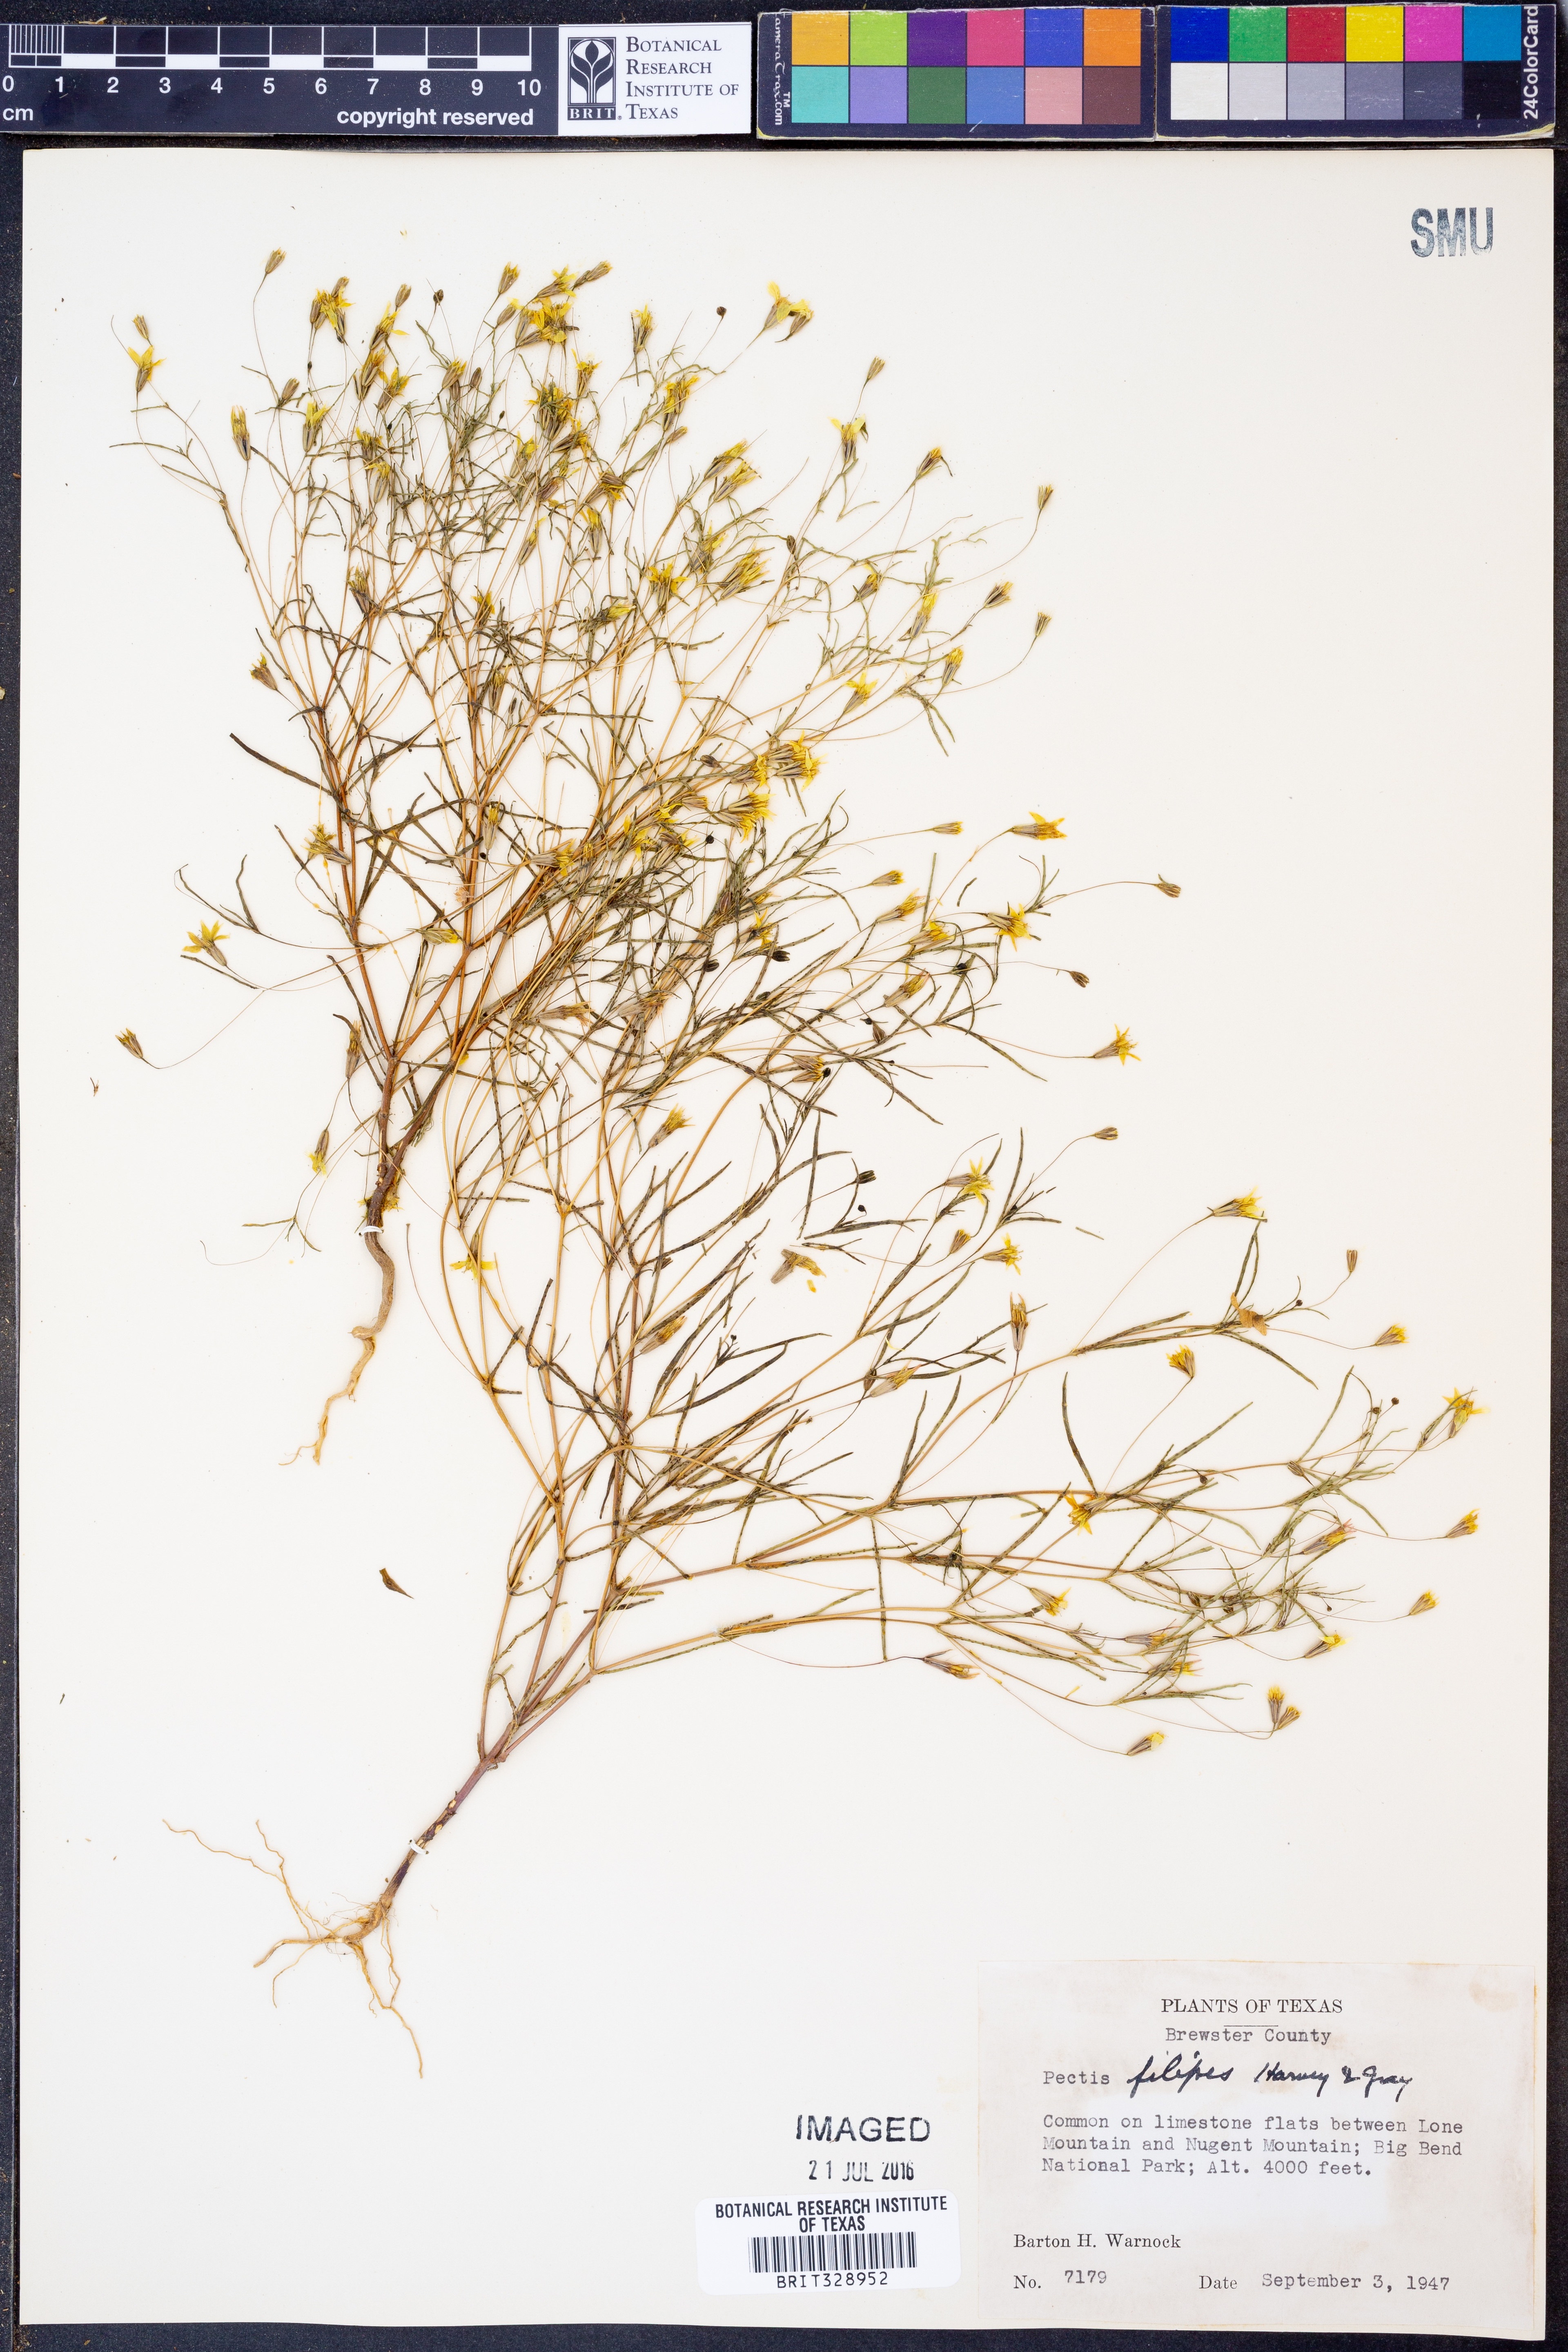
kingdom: Plantae
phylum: Tracheophyta
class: Magnoliopsida
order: Asterales
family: Asteraceae
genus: Pectis
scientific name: Pectis filipes
